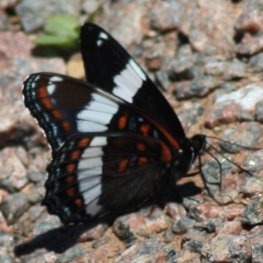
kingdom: Animalia
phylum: Arthropoda
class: Insecta
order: Lepidoptera
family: Nymphalidae
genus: Limenitis
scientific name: Limenitis arthemis
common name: Red-spotted Admiral
